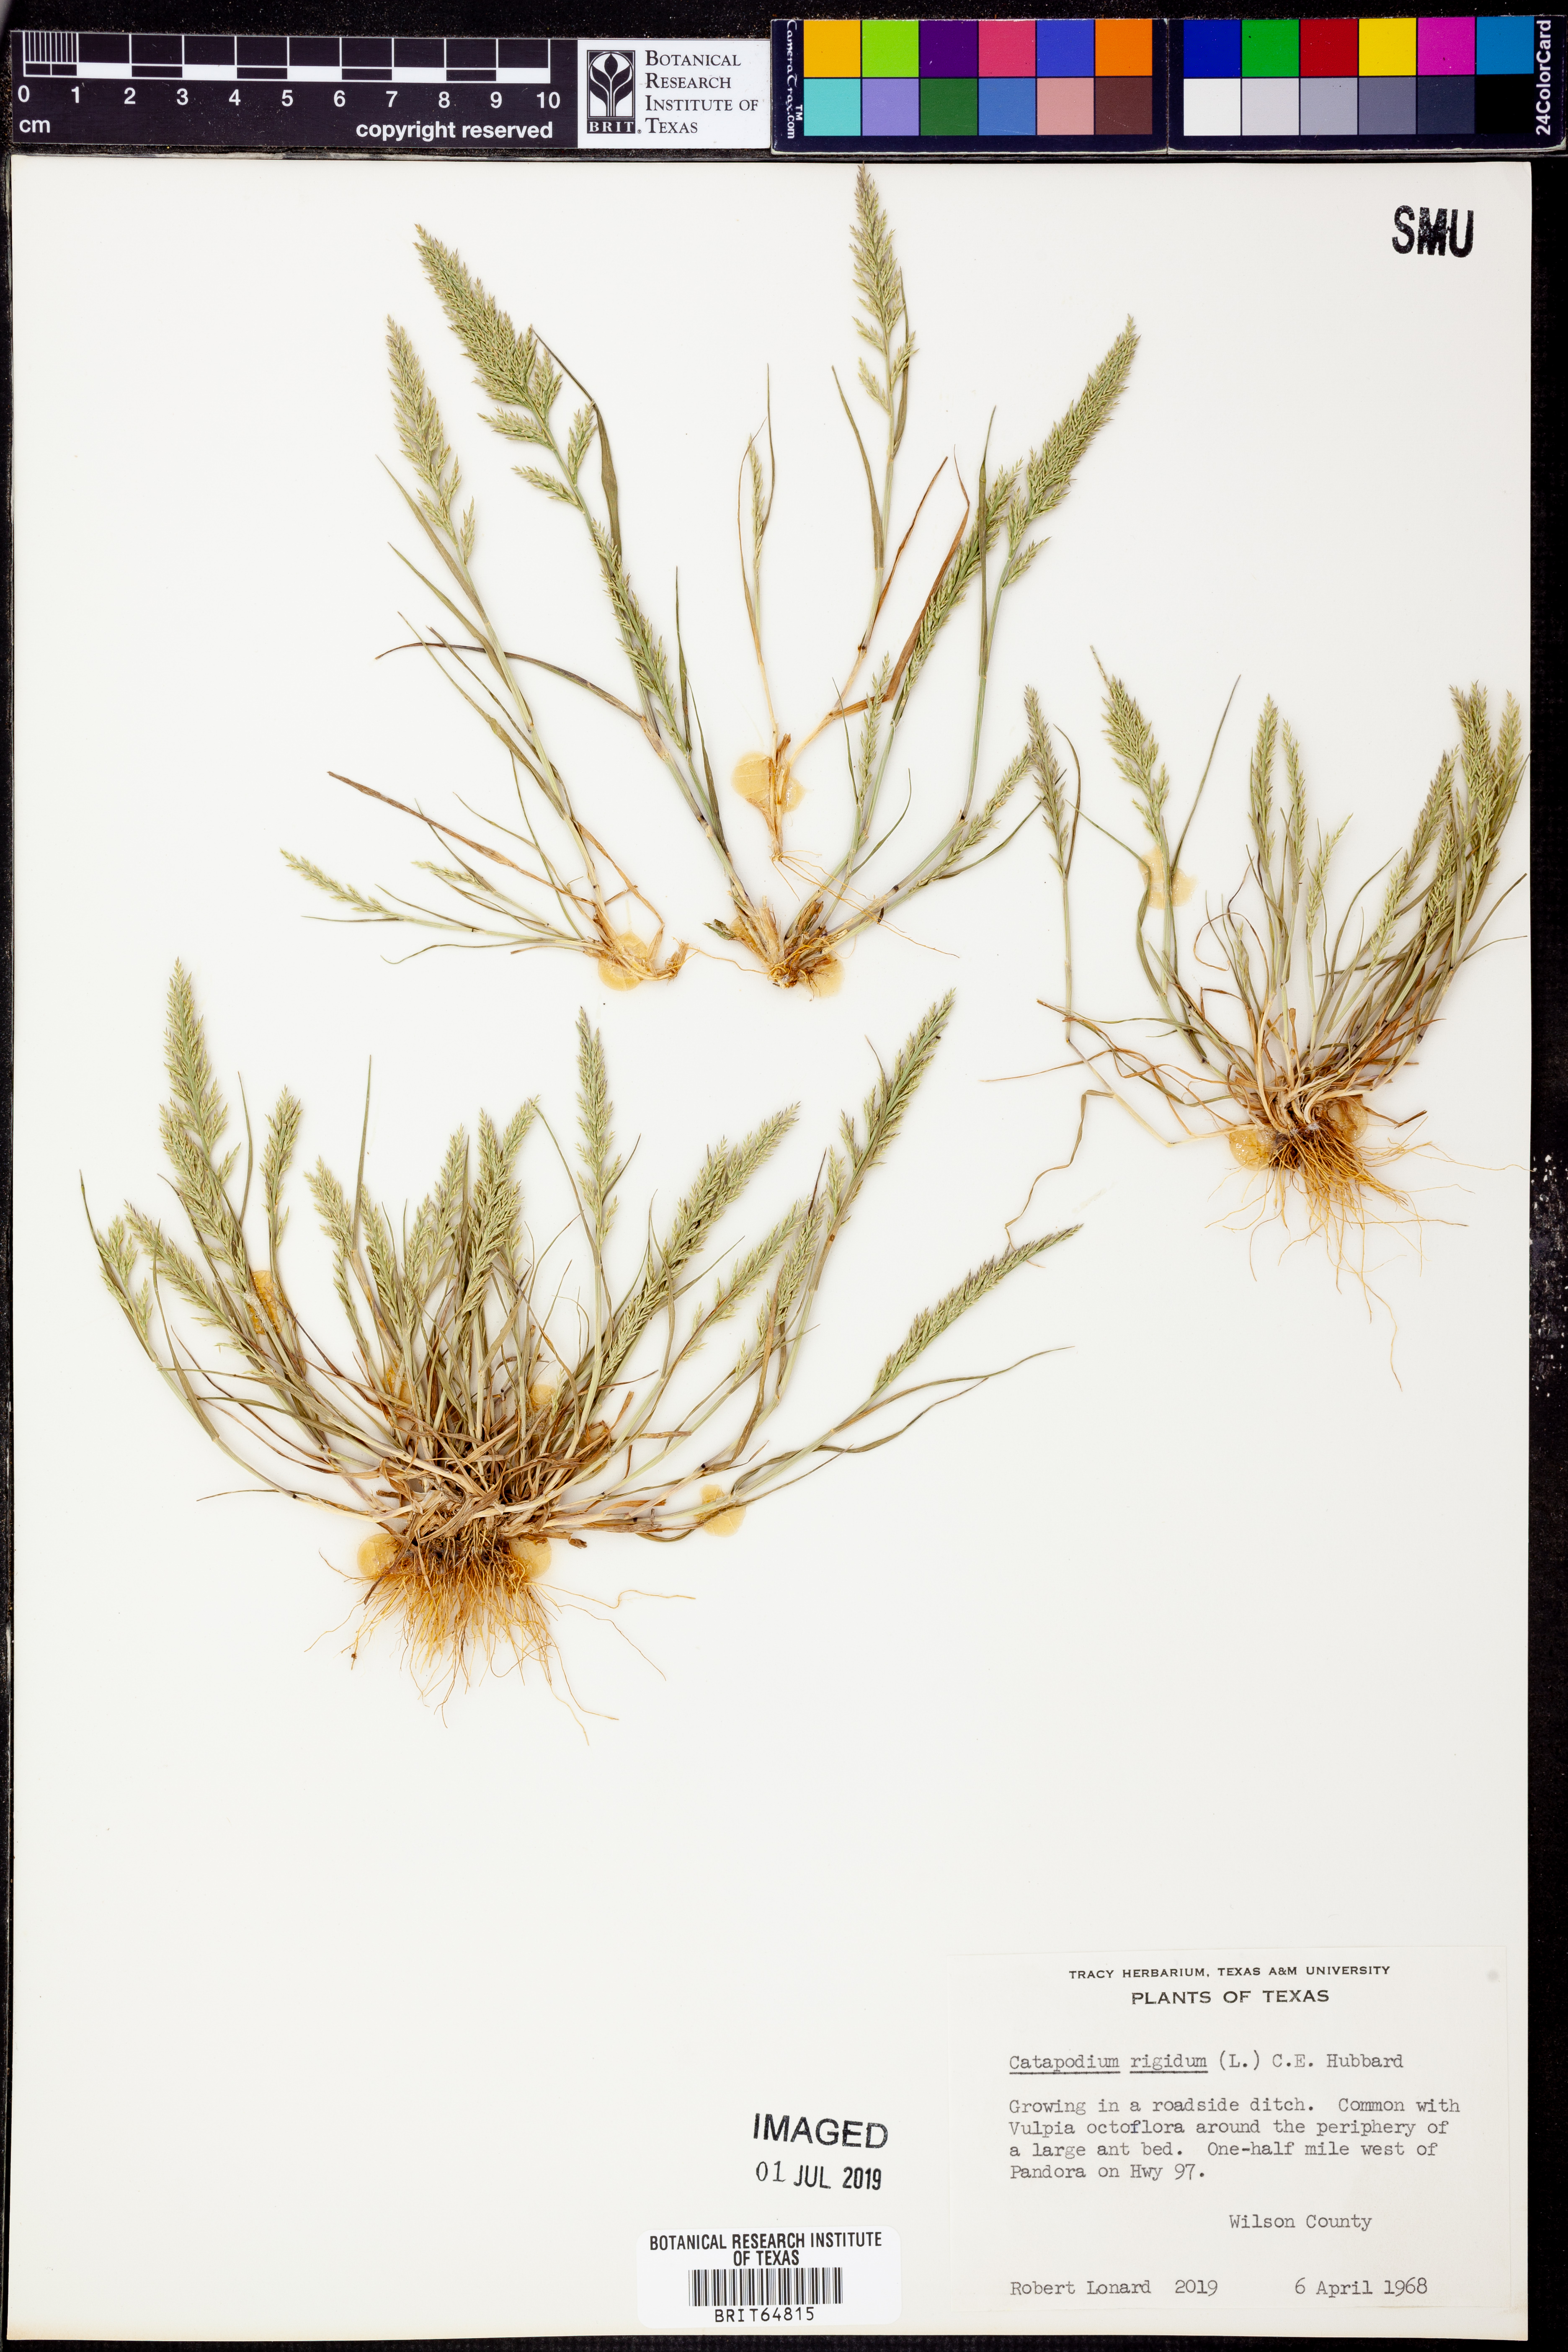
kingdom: Plantae
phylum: Tracheophyta
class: Liliopsida
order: Poales
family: Poaceae
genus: Catapodium
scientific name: Catapodium rigidum
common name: Fern-grass
